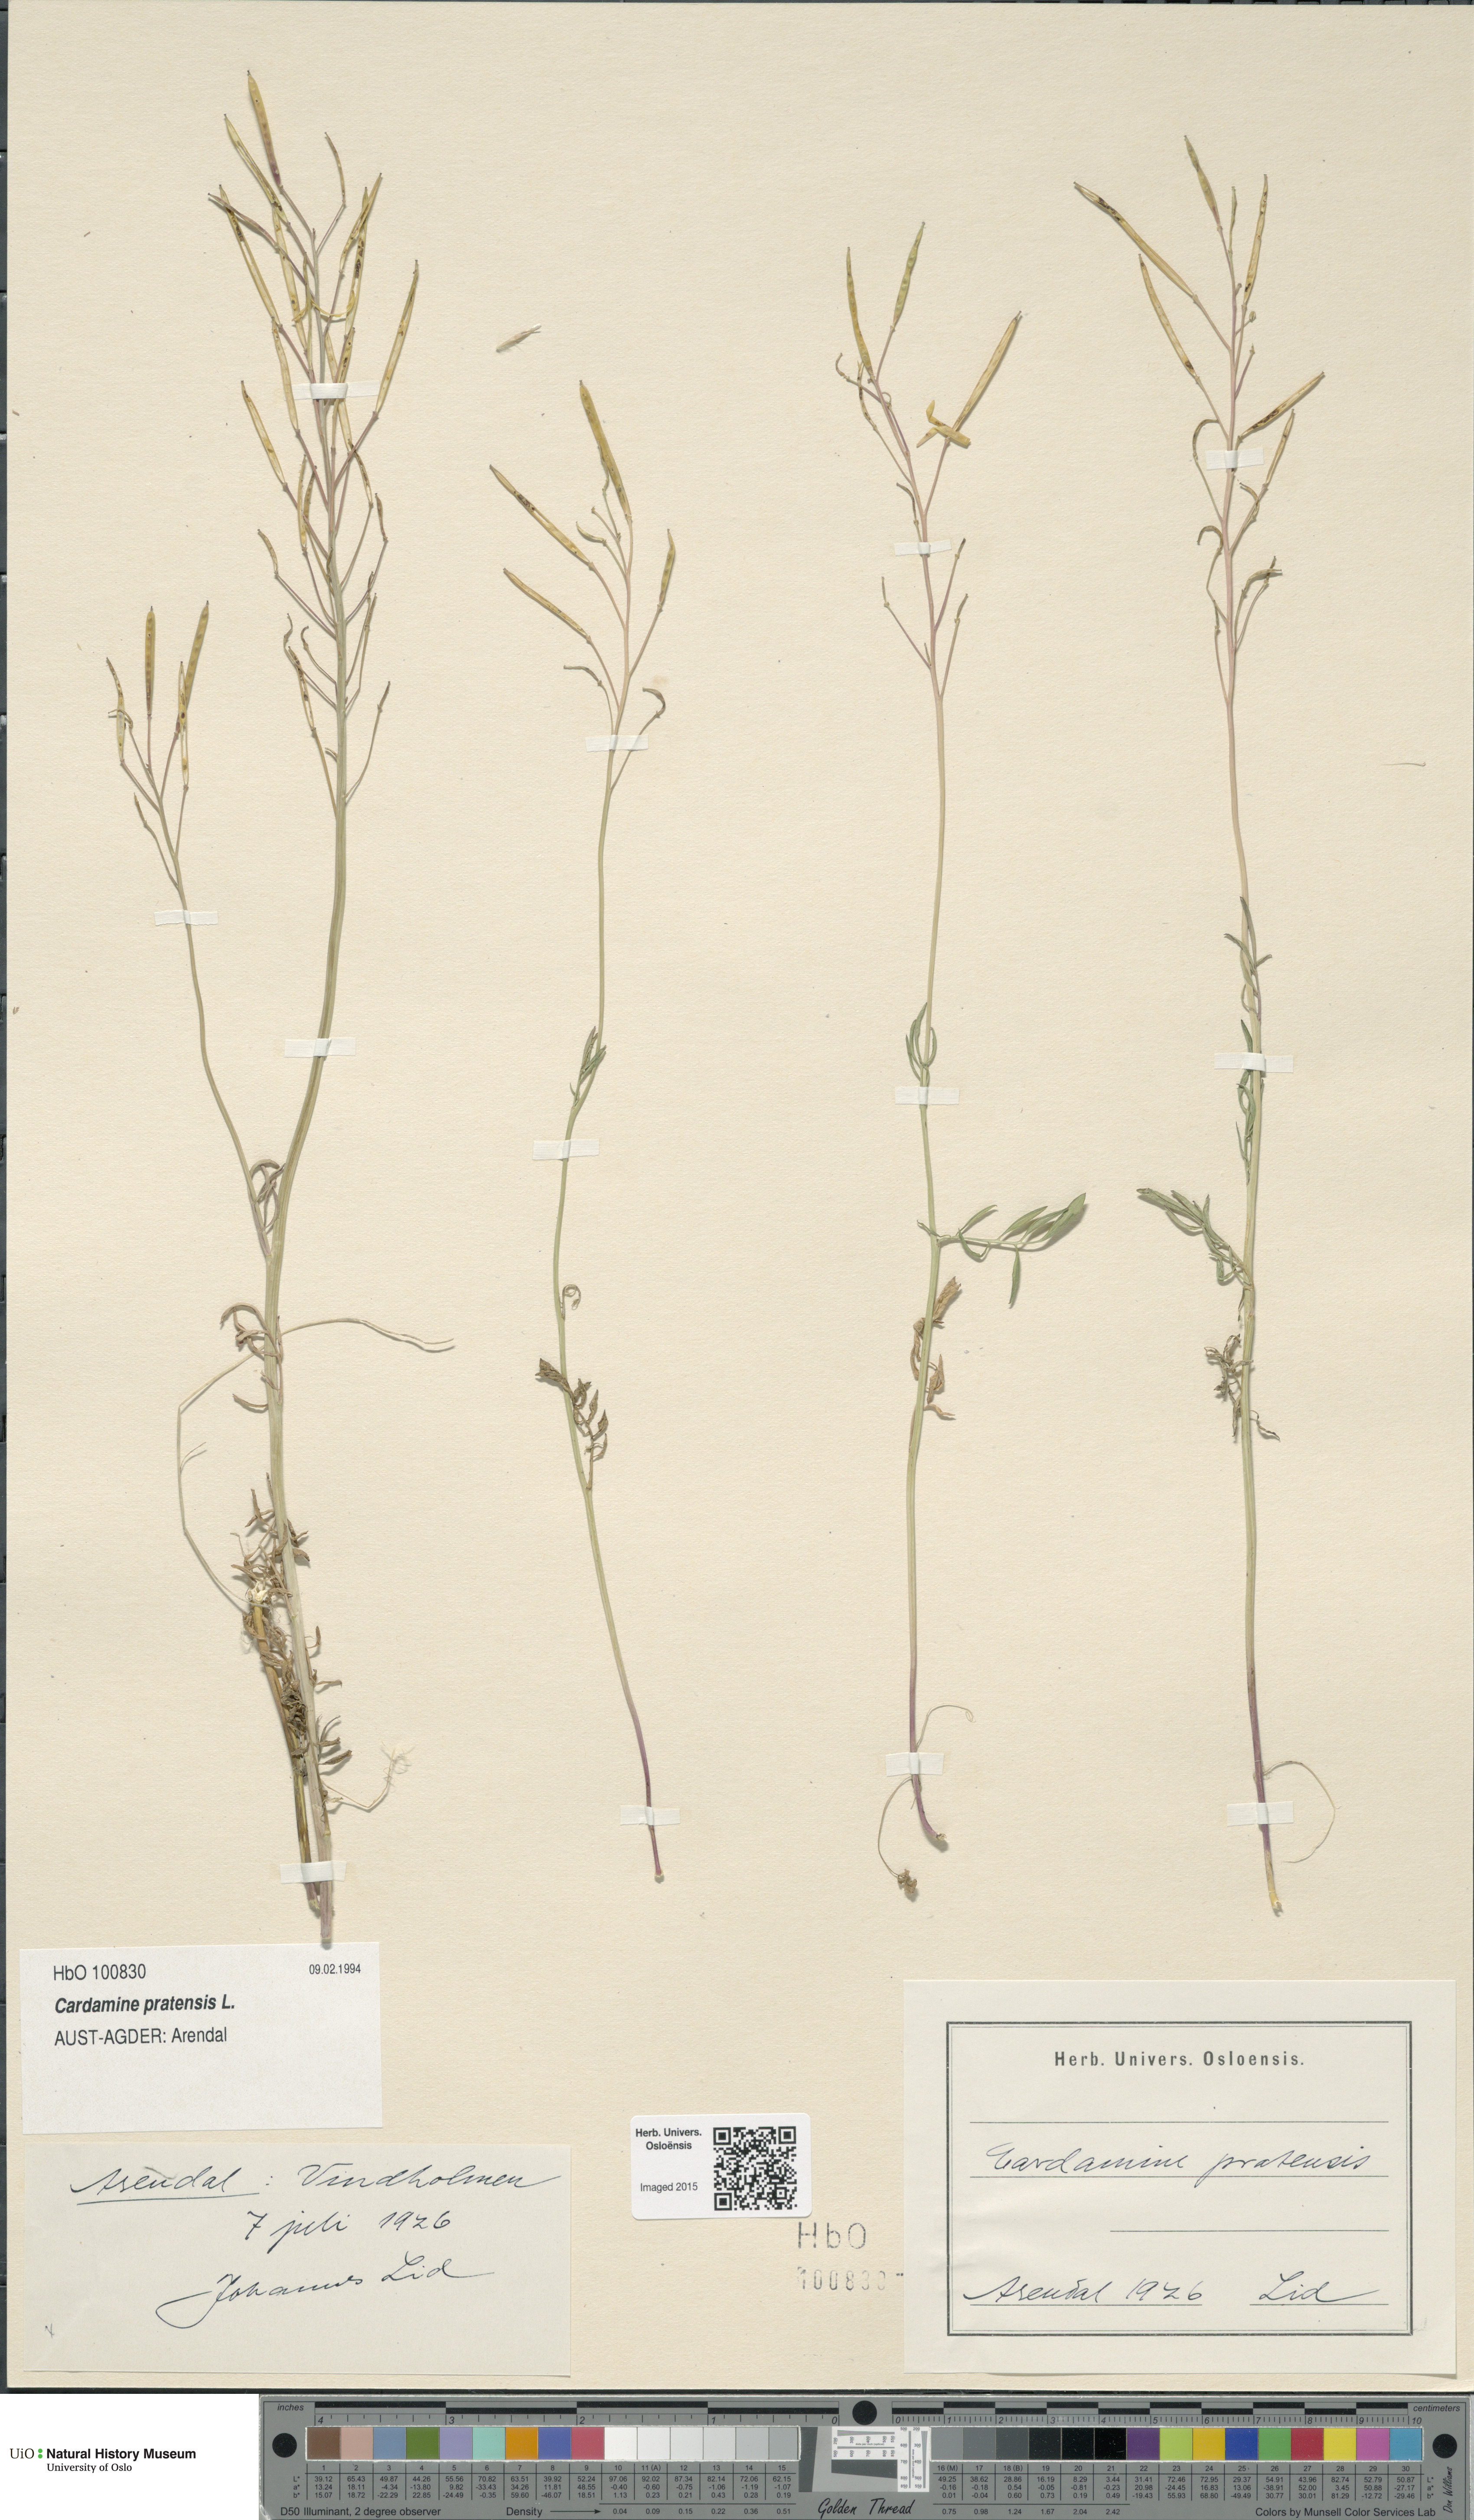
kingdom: Plantae
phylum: Tracheophyta
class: Magnoliopsida
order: Brassicales
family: Brassicaceae
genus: Cardamine
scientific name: Cardamine pratensis
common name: Cuckoo flower
